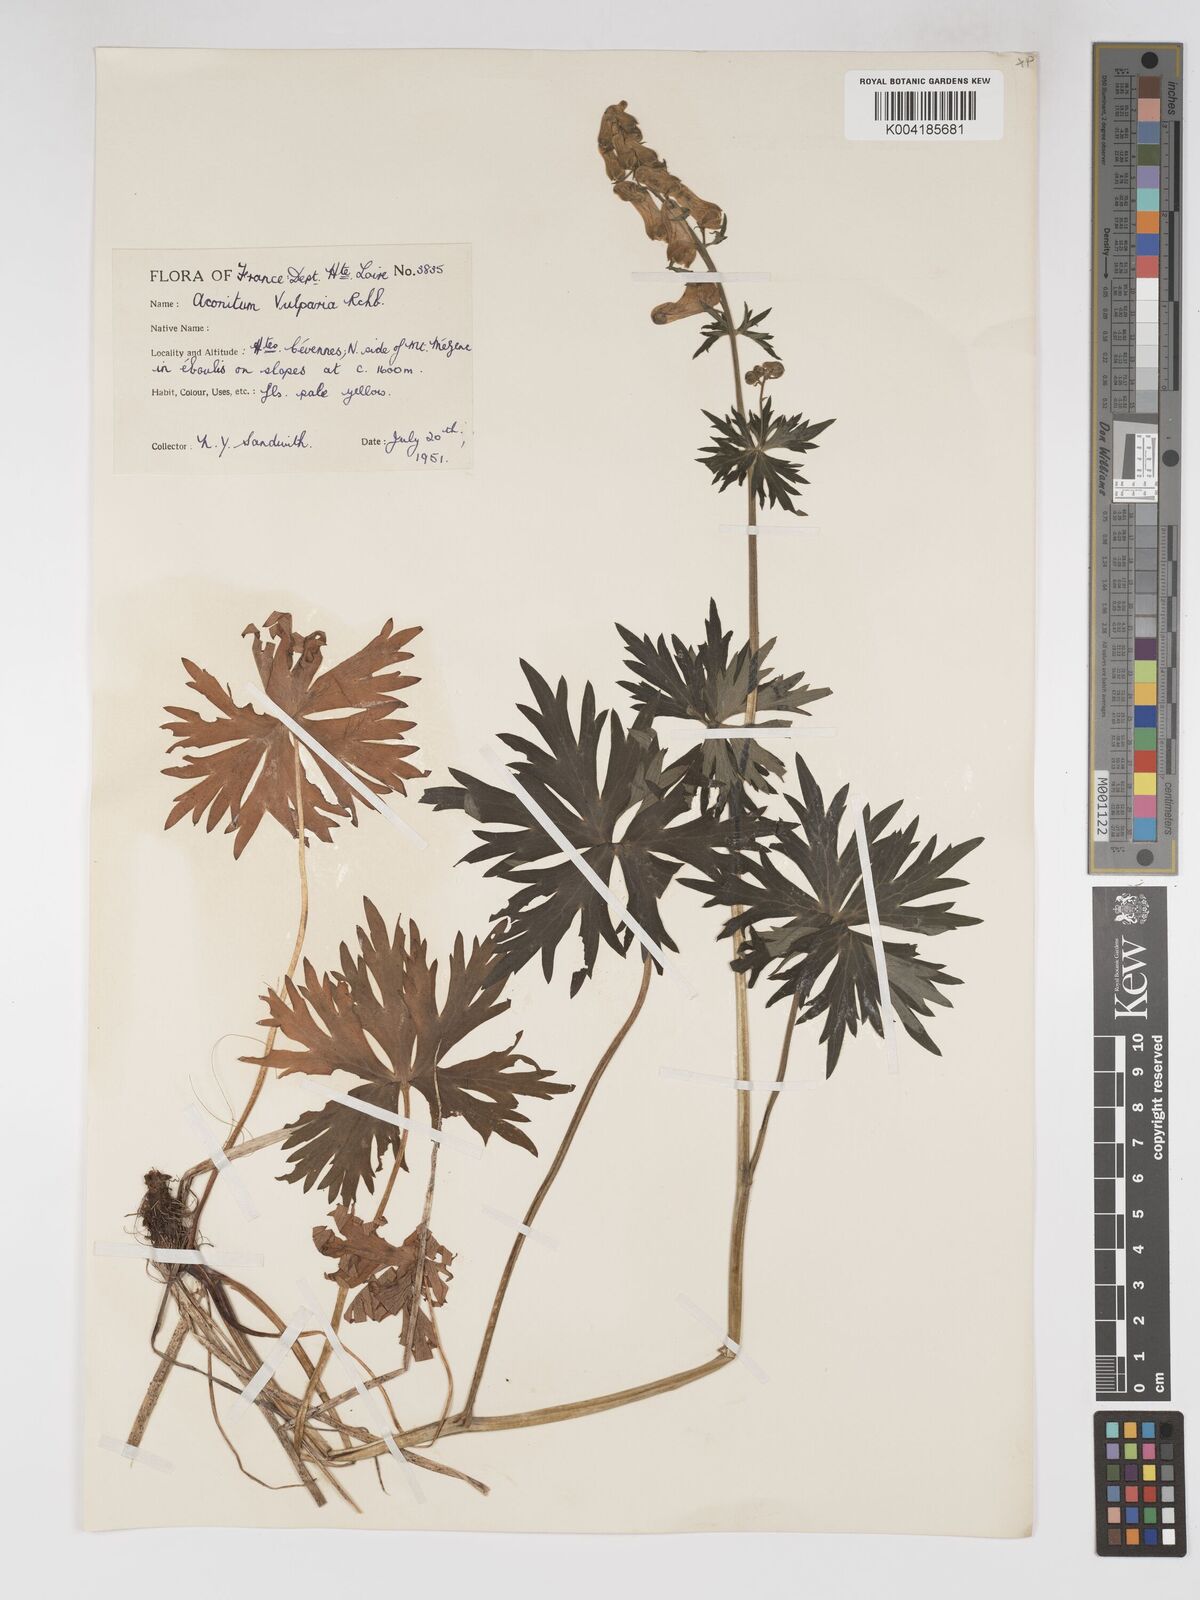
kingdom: Plantae
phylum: Tracheophyta
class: Magnoliopsida
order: Ranunculales
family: Ranunculaceae
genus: Aconitum
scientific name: Aconitum lycoctonum
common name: Wolf's-bane
